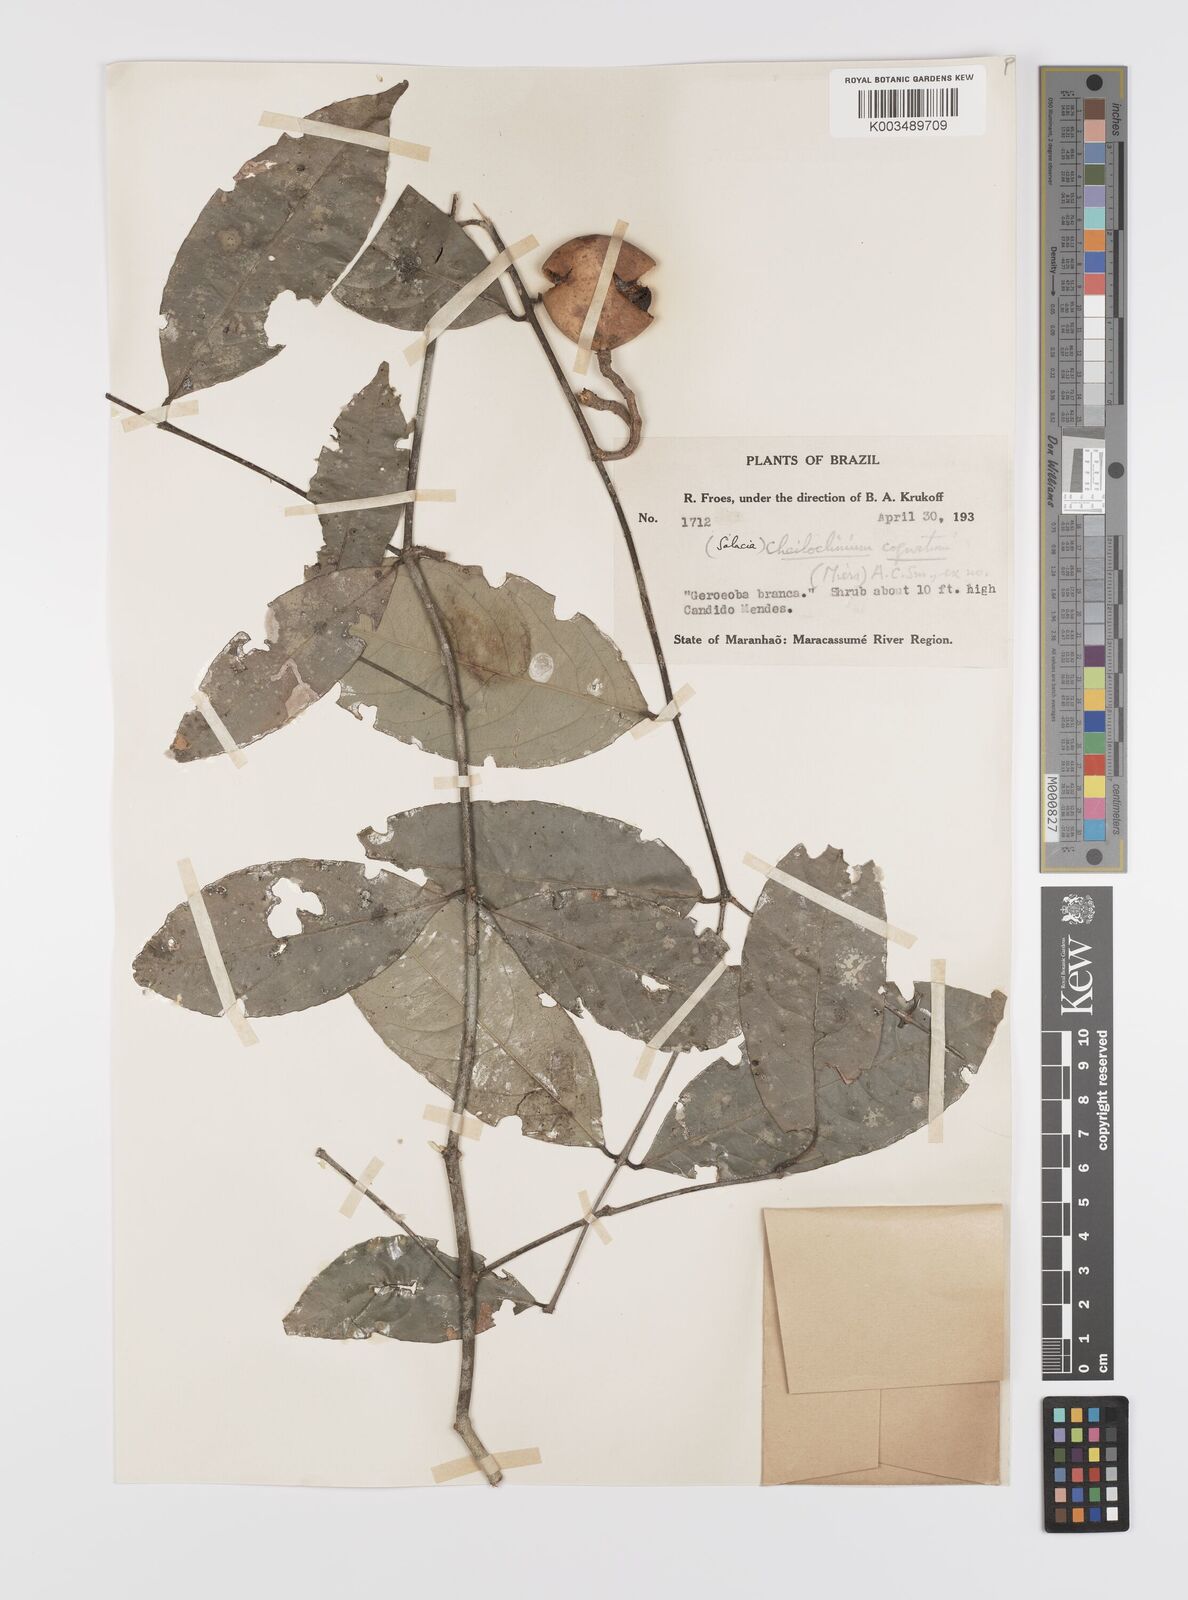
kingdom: Plantae
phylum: Tracheophyta
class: Magnoliopsida
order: Celastrales
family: Celastraceae
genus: Cheiloclinium
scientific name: Cheiloclinium cognatum
